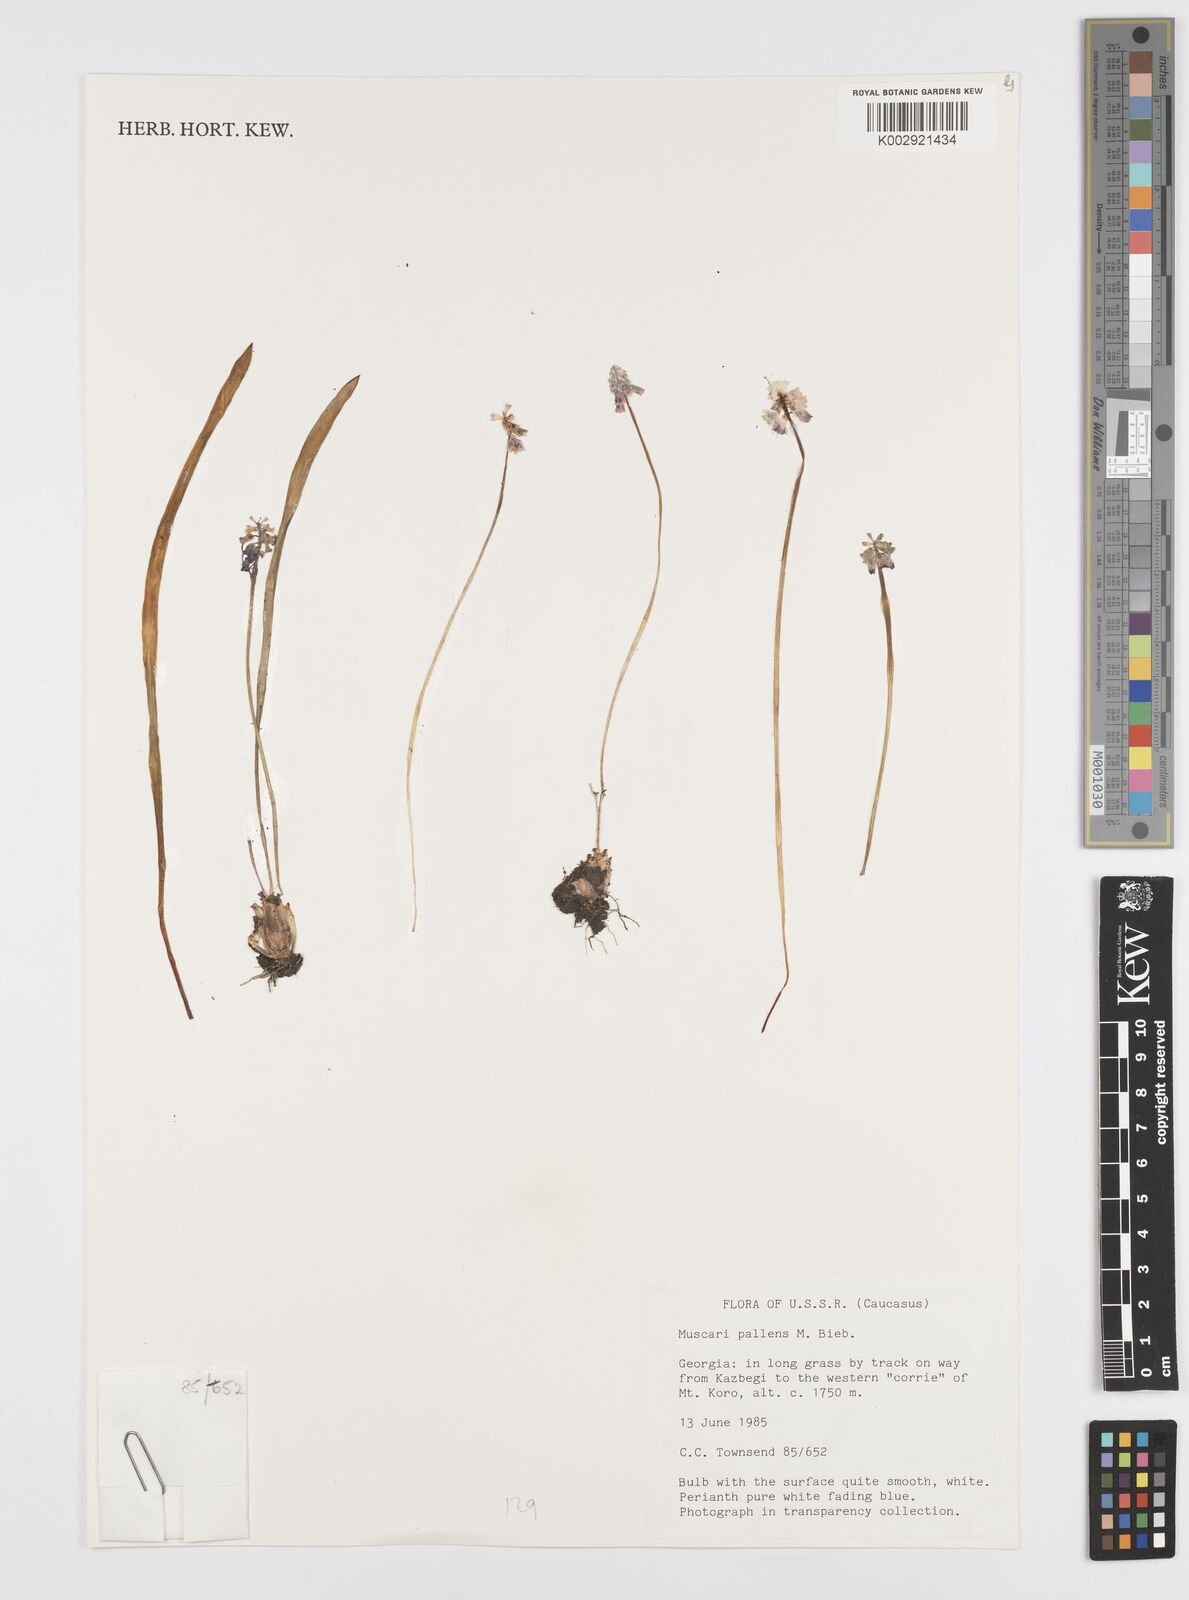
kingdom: Plantae
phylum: Tracheophyta
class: Liliopsida
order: Asparagales
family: Asparagaceae
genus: Muscari
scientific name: Muscari
